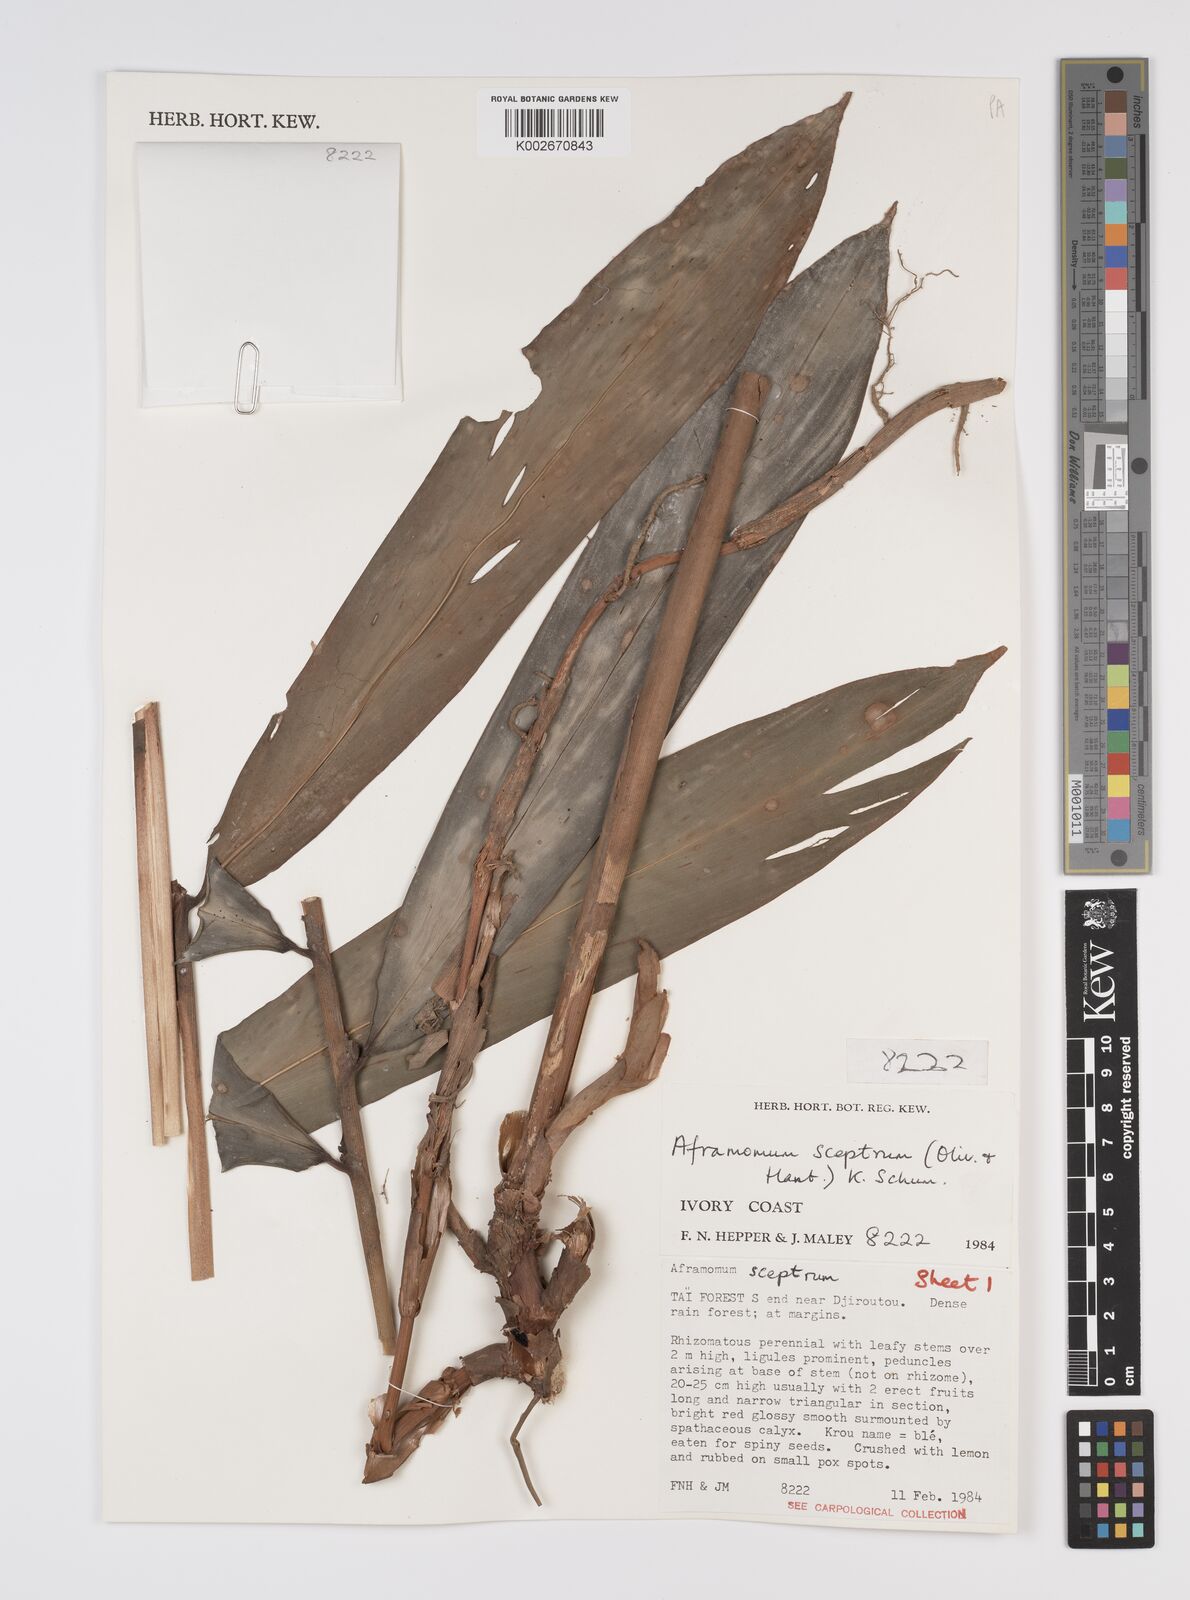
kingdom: Plantae
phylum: Tracheophyta
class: Liliopsida
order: Zingiberales
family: Zingiberaceae
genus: Aframomum
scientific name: Aframomum cereum
